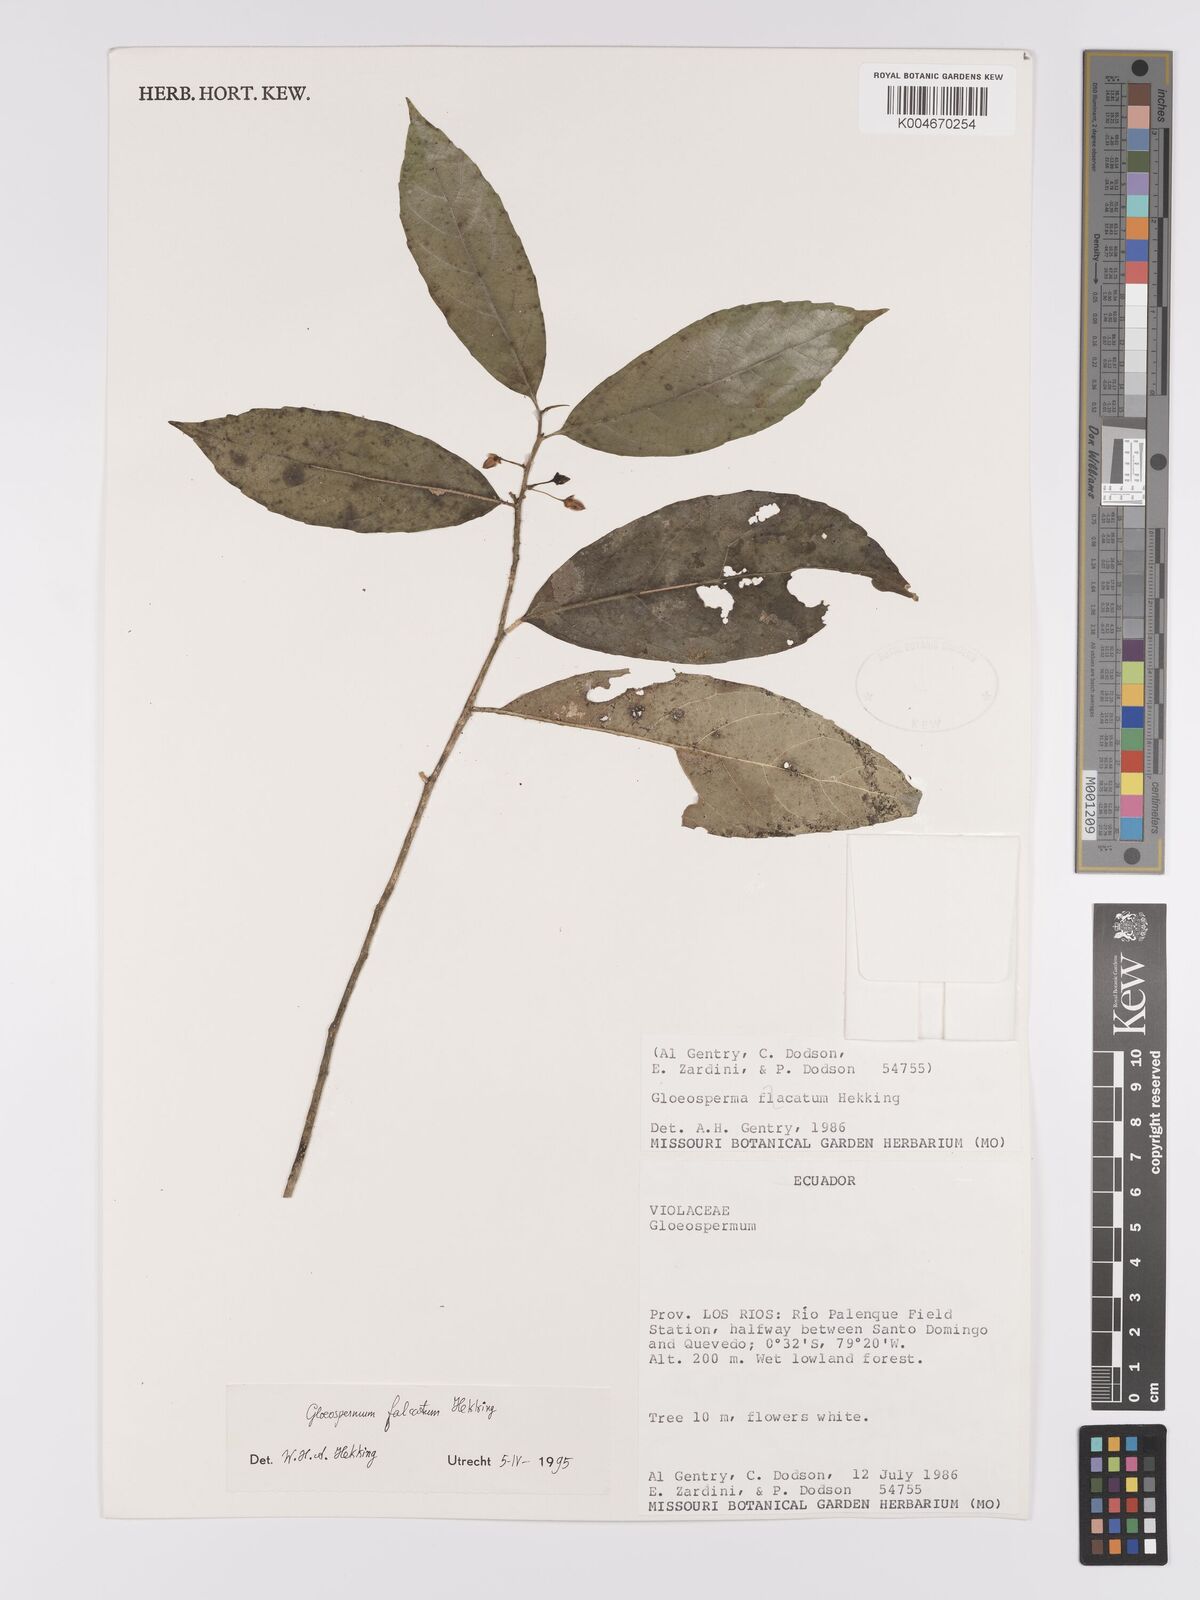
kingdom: Plantae
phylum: Tracheophyta
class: Magnoliopsida
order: Malpighiales
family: Violaceae
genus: Gloeospermum
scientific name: Gloeospermum falcatum
